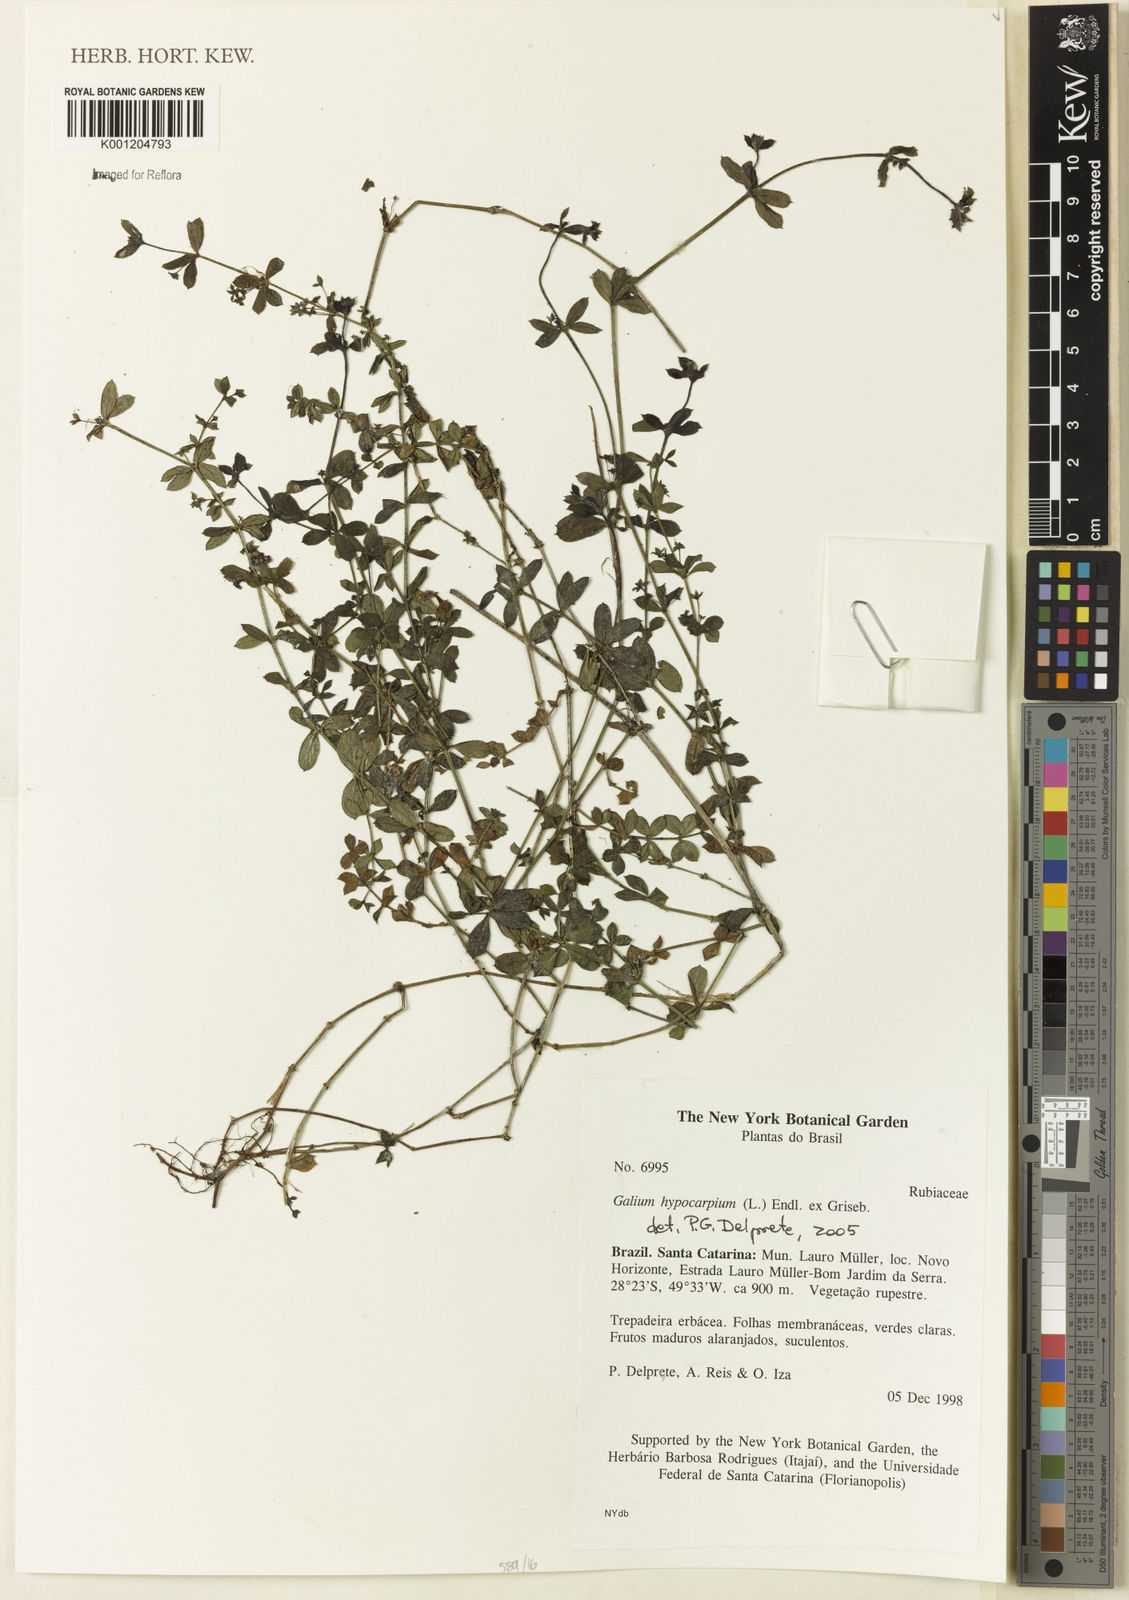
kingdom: Plantae
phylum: Tracheophyta
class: Magnoliopsida
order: Gentianales
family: Rubiaceae
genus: Galium
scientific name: Galium hypocarpium
